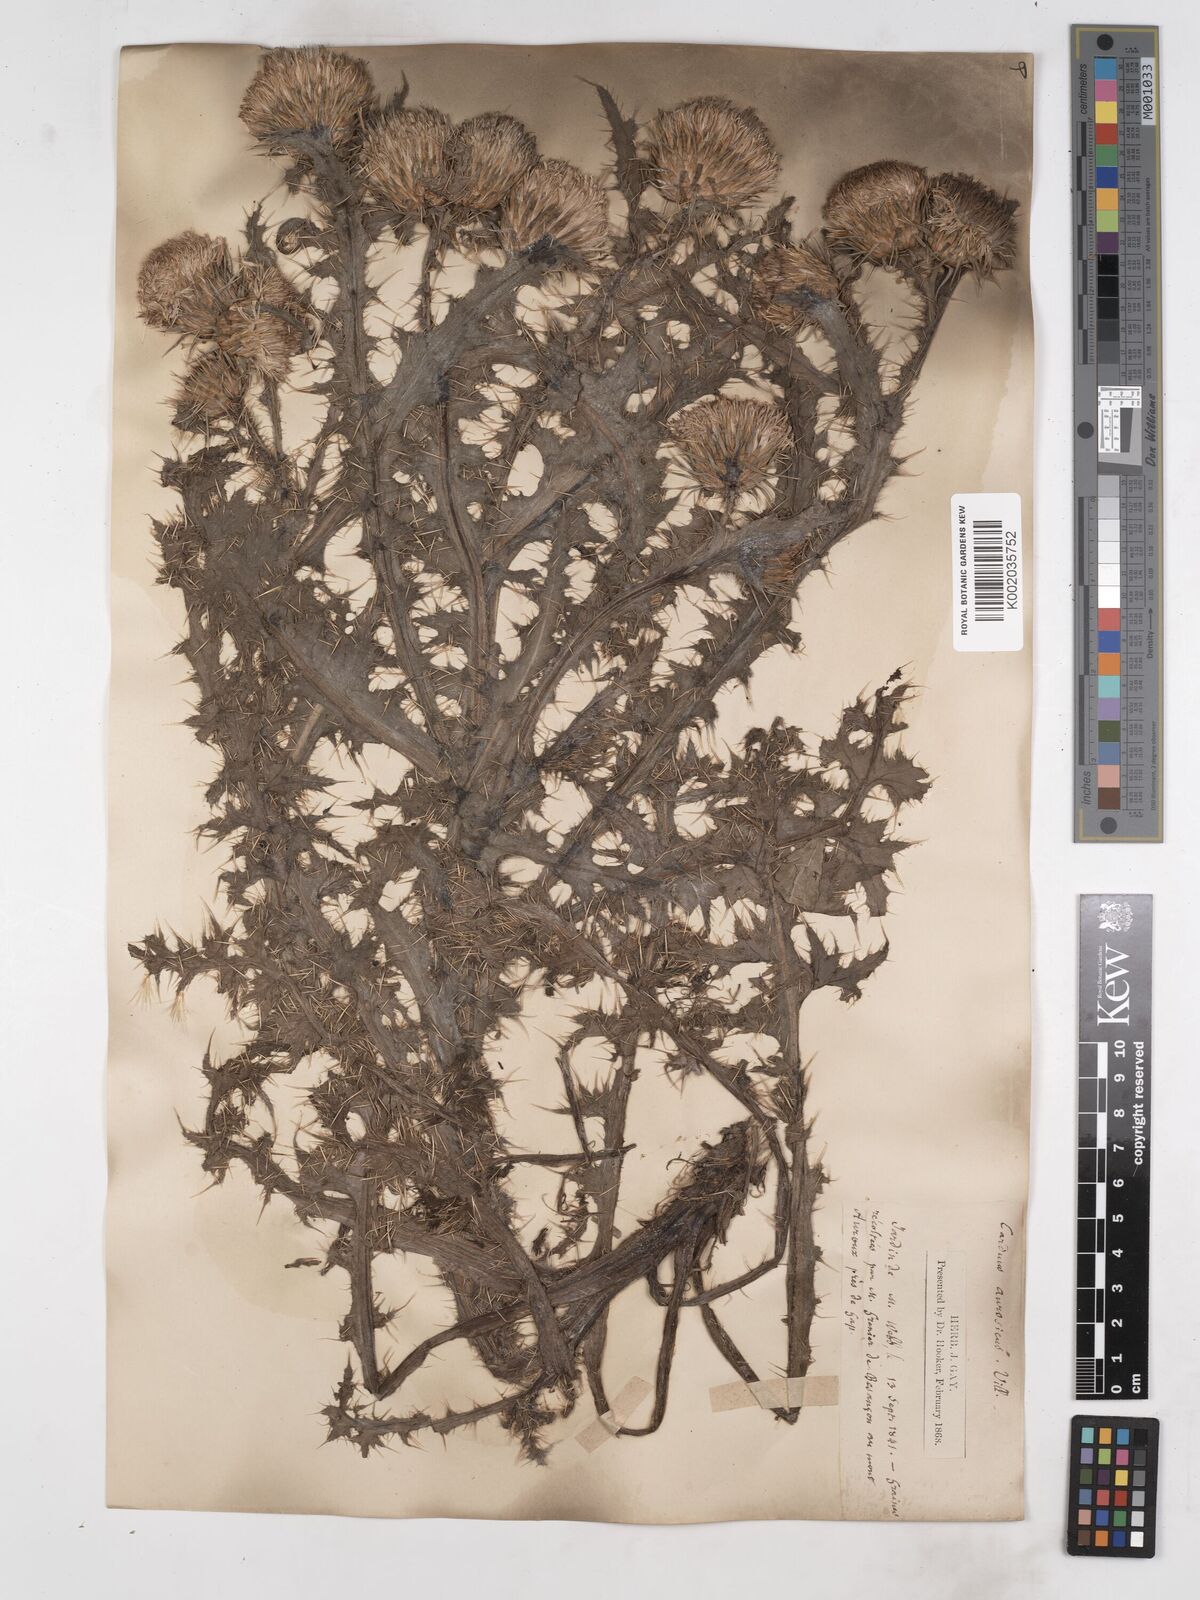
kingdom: Plantae
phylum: Tracheophyta
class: Magnoliopsida
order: Asterales
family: Asteraceae
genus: Carduus
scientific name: Carduus aurosicus
